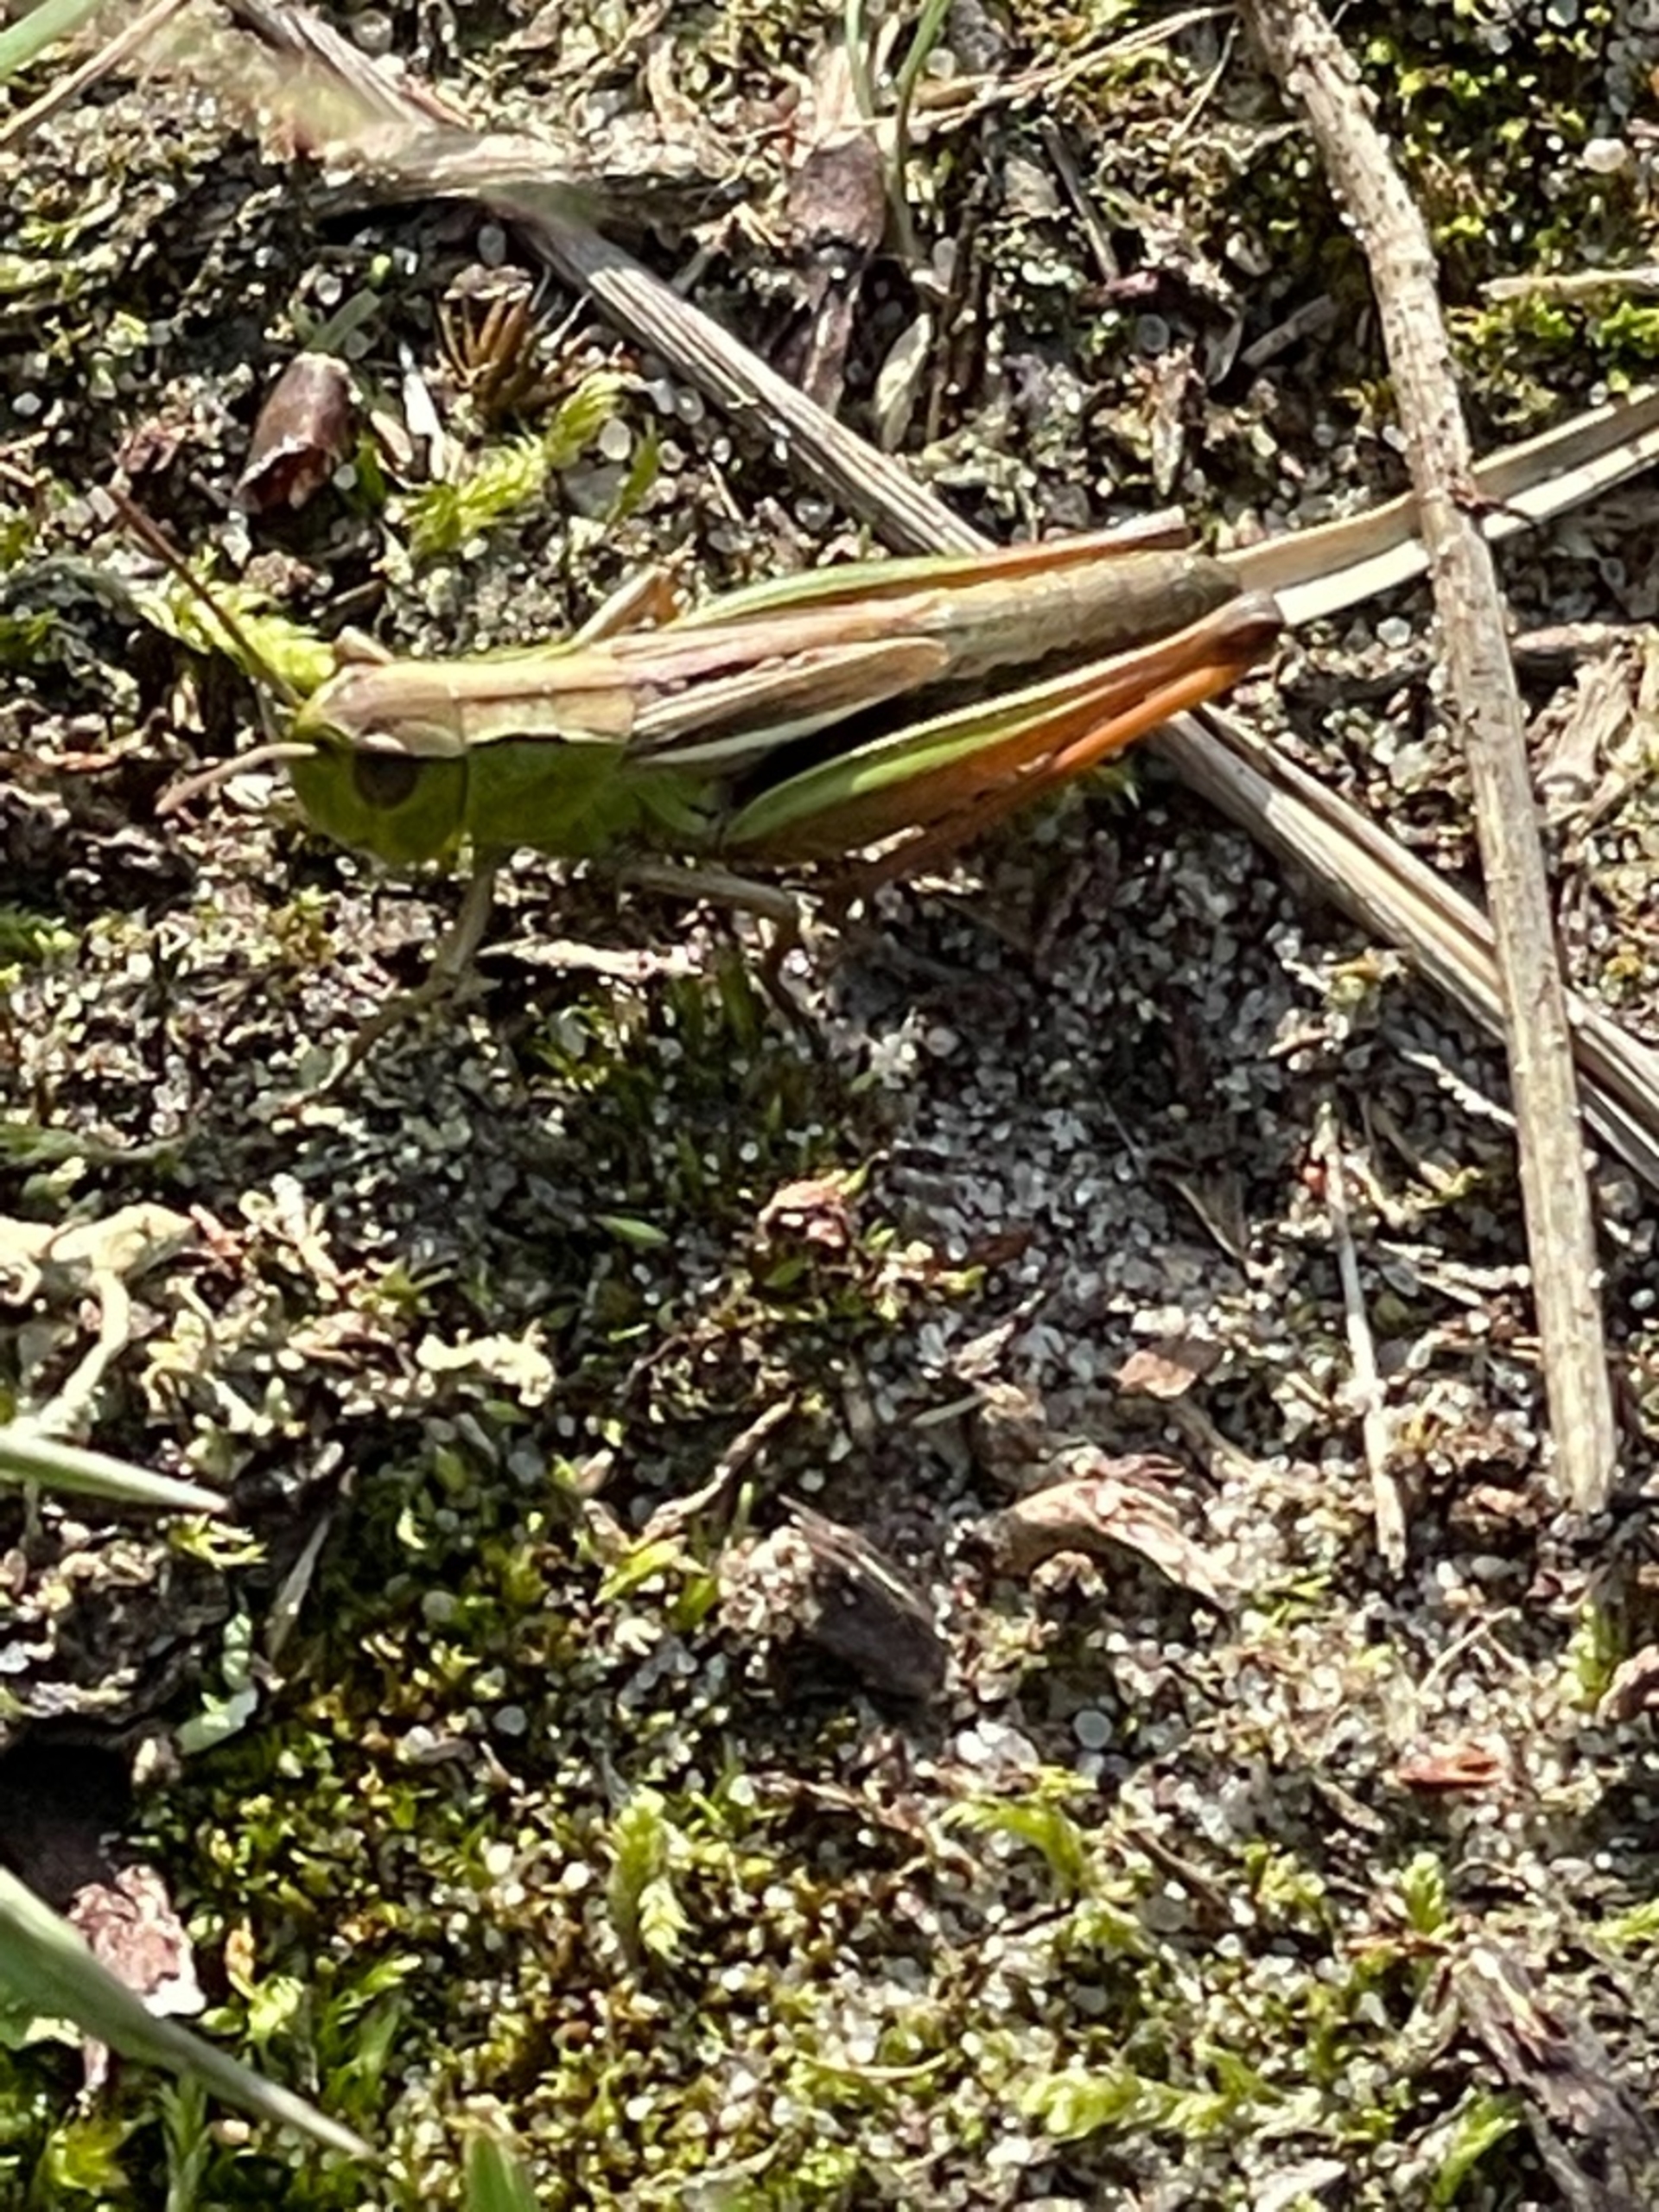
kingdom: Animalia
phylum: Arthropoda
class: Insecta
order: Orthoptera
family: Acrididae
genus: Pseudochorthippus
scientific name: Pseudochorthippus parallelus
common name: Enggræshoppe
